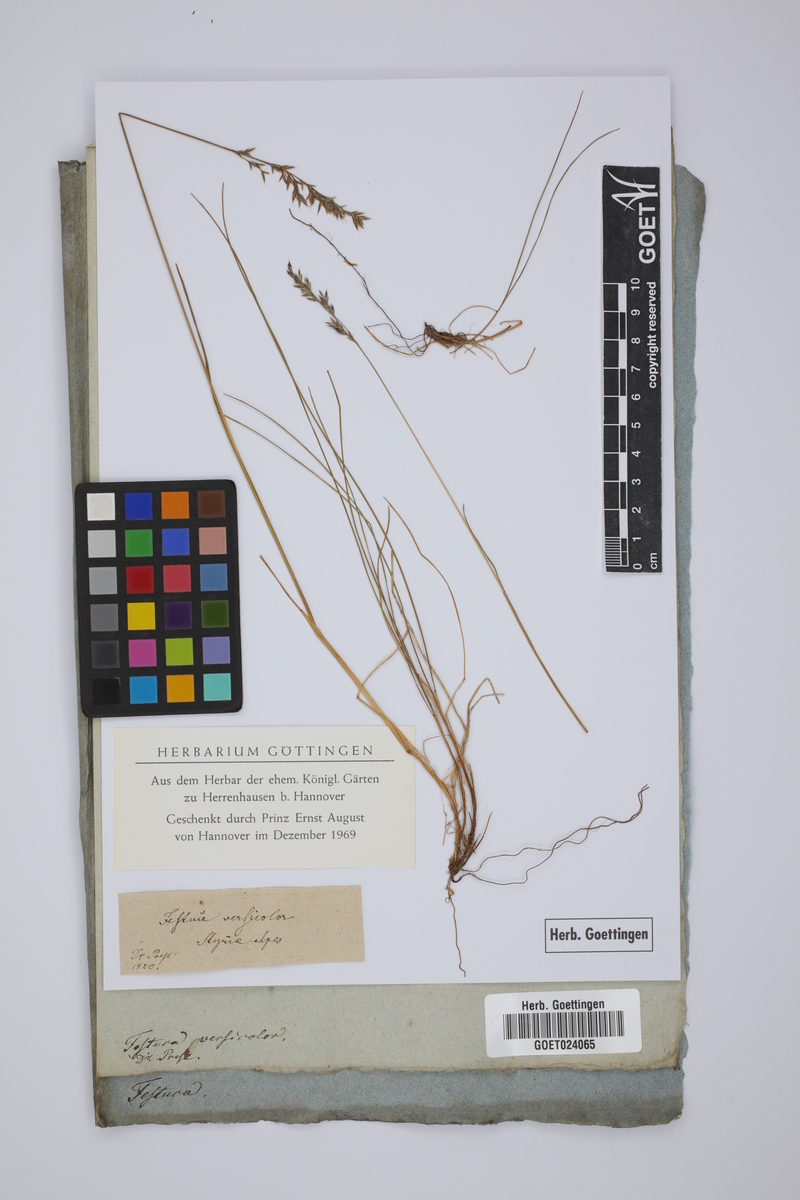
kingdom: Plantae
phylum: Tracheophyta
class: Liliopsida
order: Poales
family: Poaceae
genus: Festuca
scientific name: Festuca nigrescens
